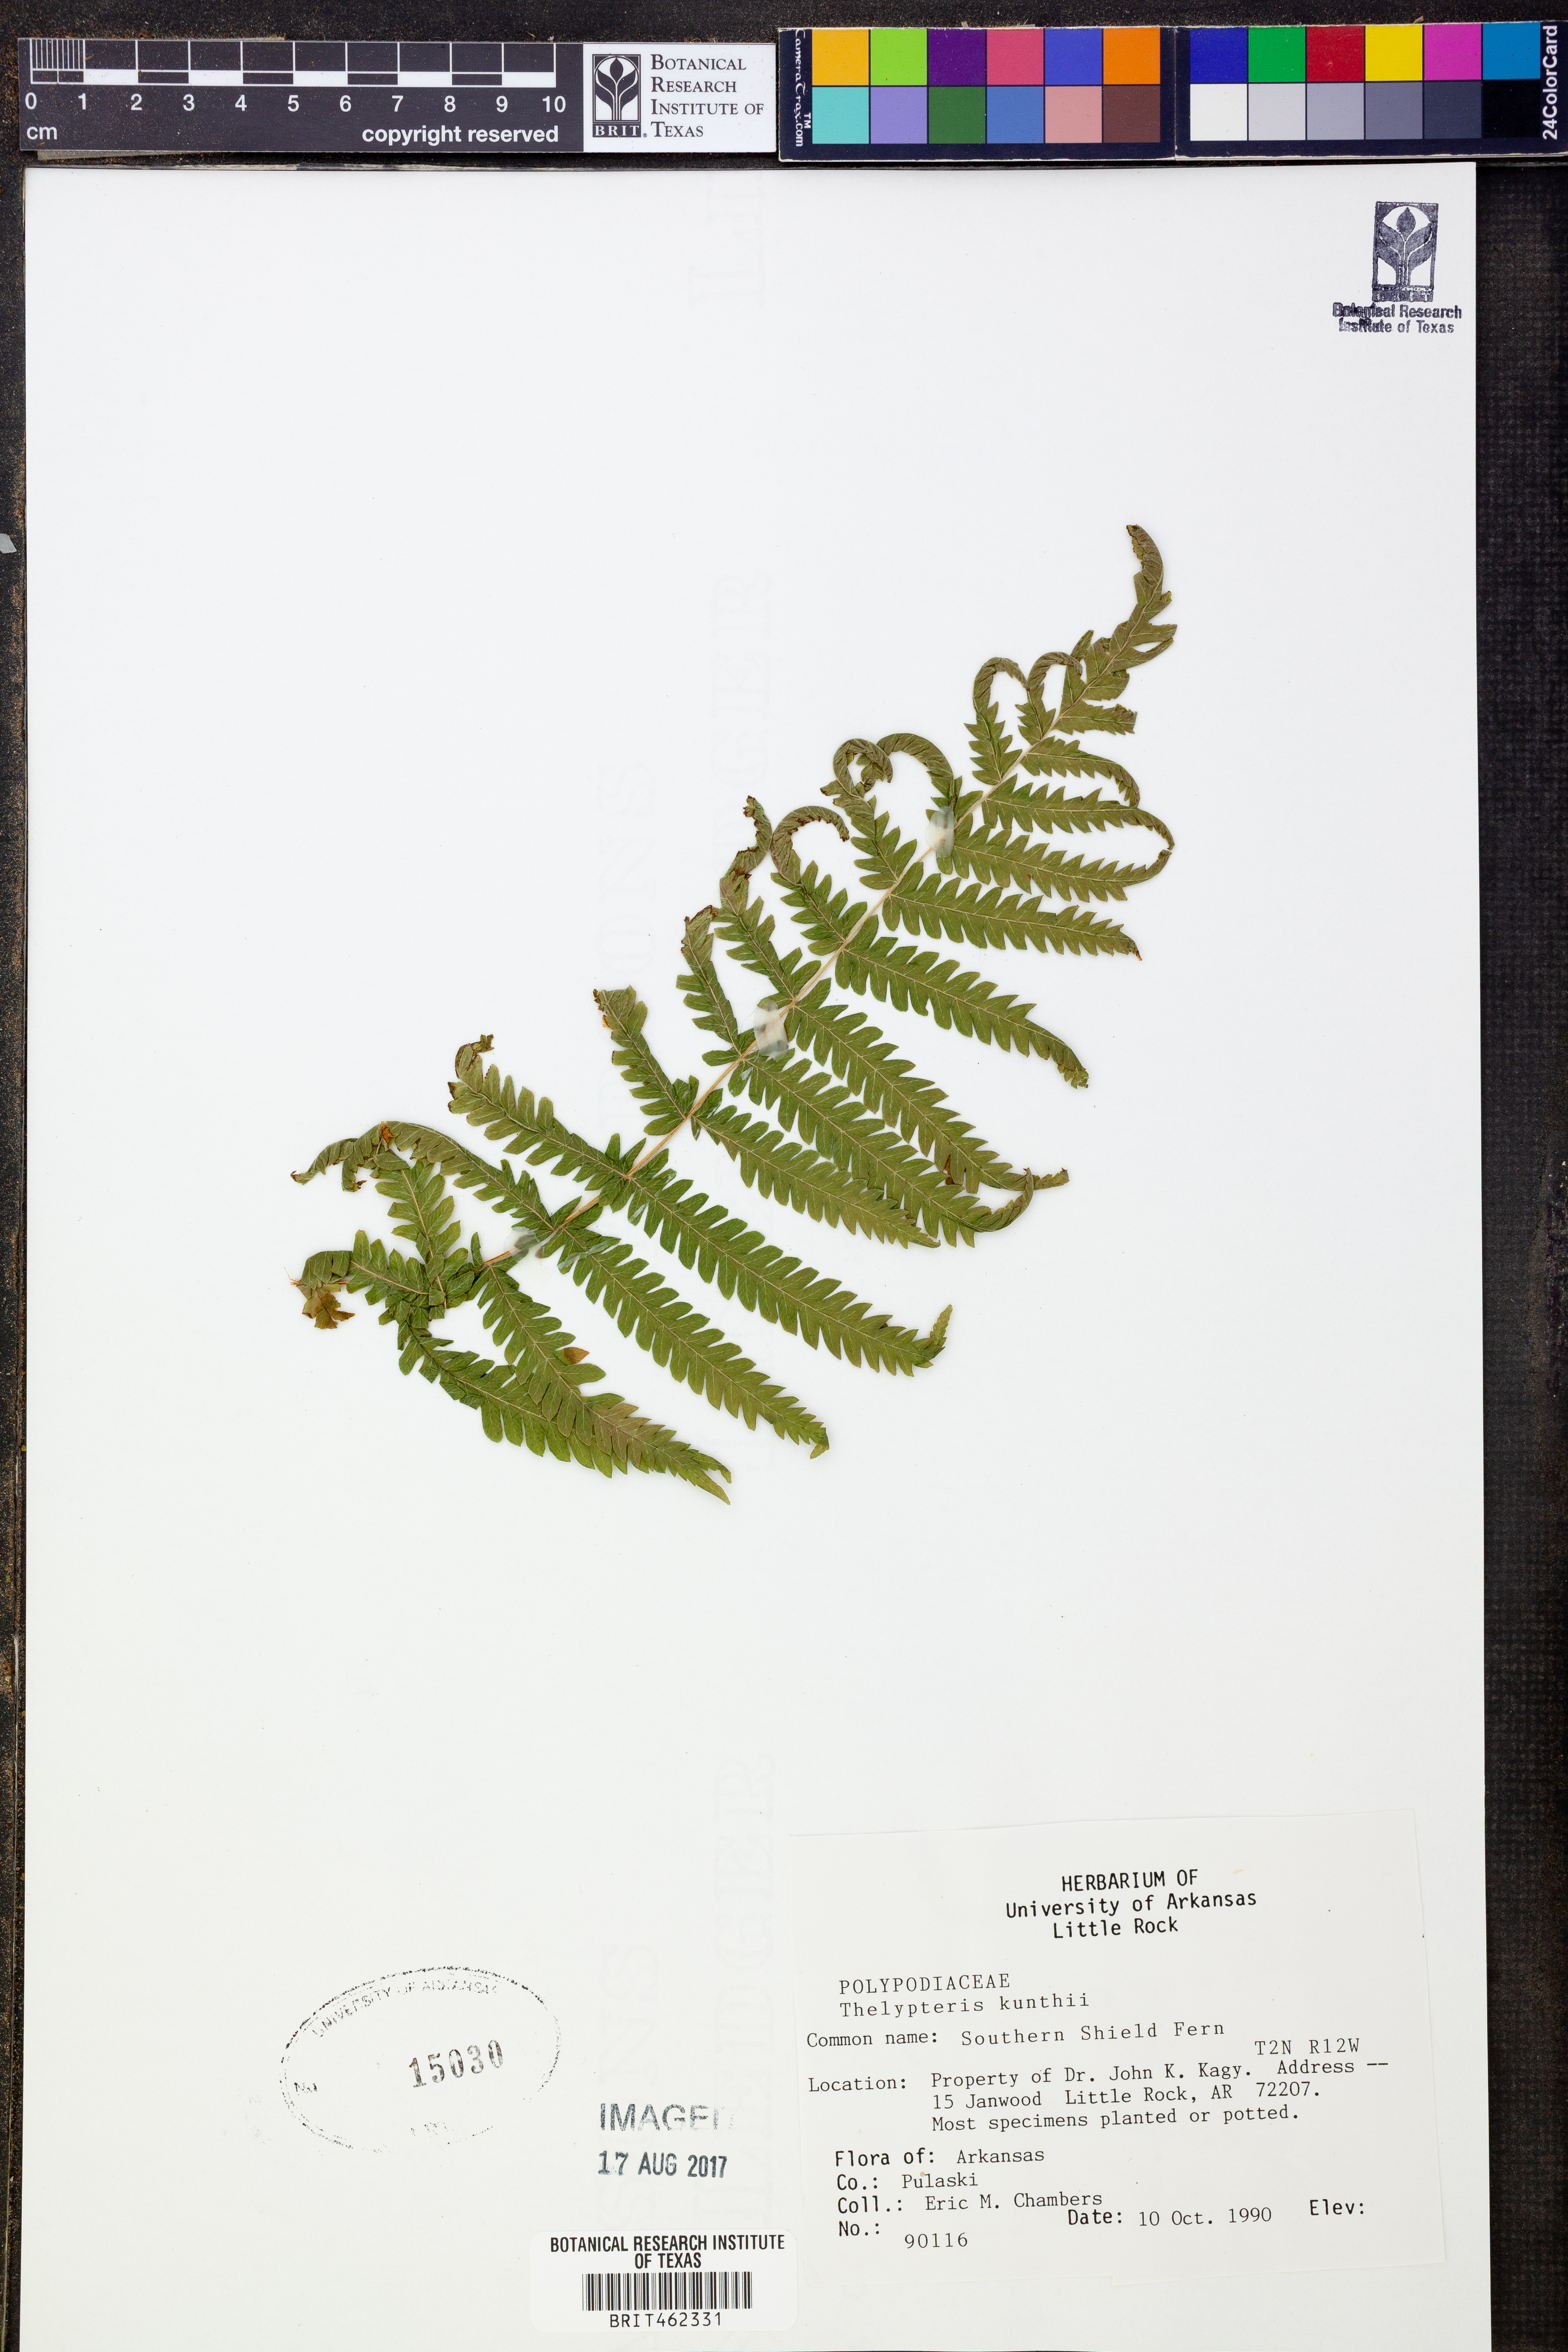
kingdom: Plantae
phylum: Tracheophyta
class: Polypodiopsida
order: Polypodiales
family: Thelypteridaceae
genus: Pelazoneuron
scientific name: Pelazoneuron kunthii
